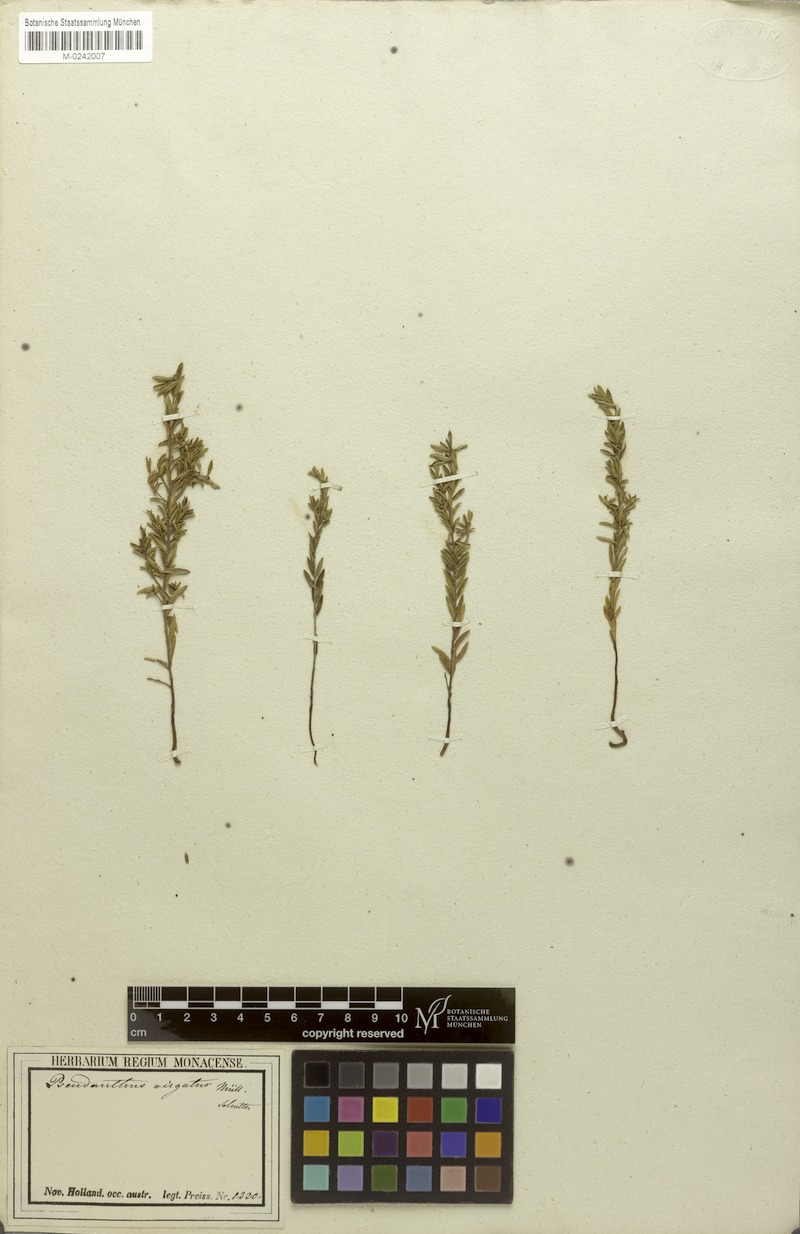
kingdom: Plantae
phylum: Tracheophyta
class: Magnoliopsida
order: Malpighiales
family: Picrodendraceae
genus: Stachystemon
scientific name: Stachystemon virgatus
